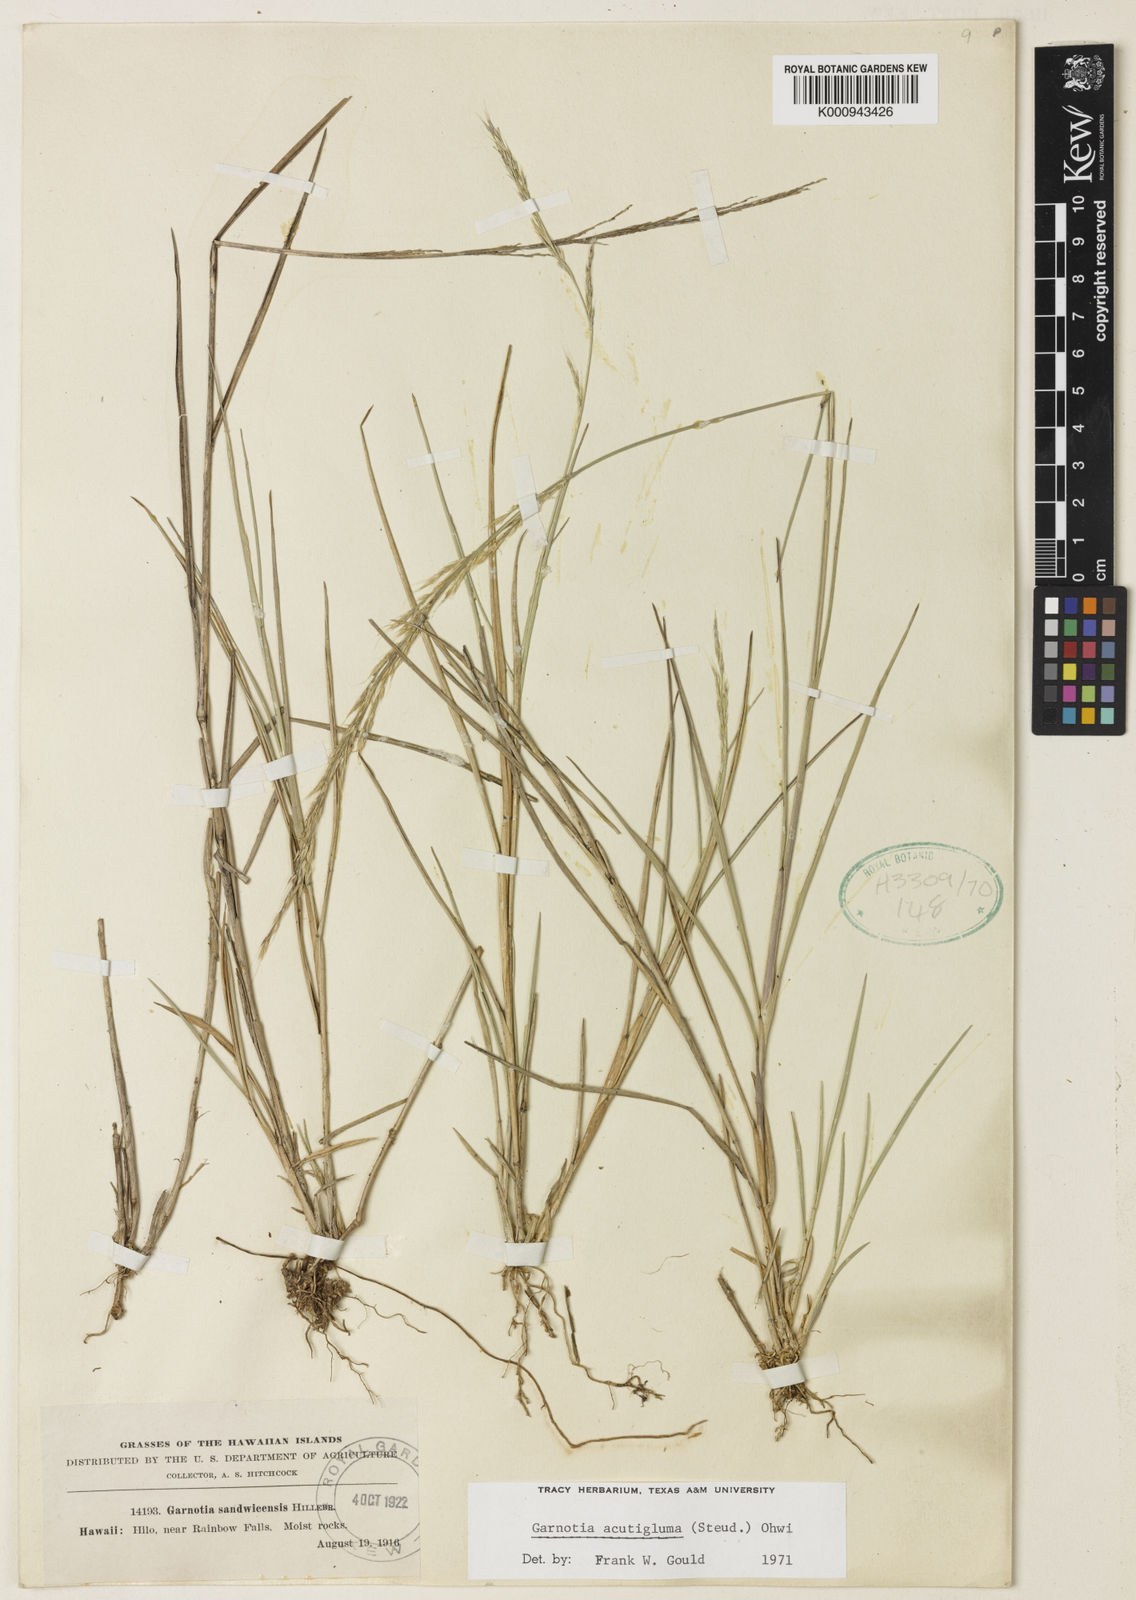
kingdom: Plantae
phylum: Tracheophyta
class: Liliopsida
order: Poales
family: Poaceae
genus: Garnotia
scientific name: Garnotia stricta
